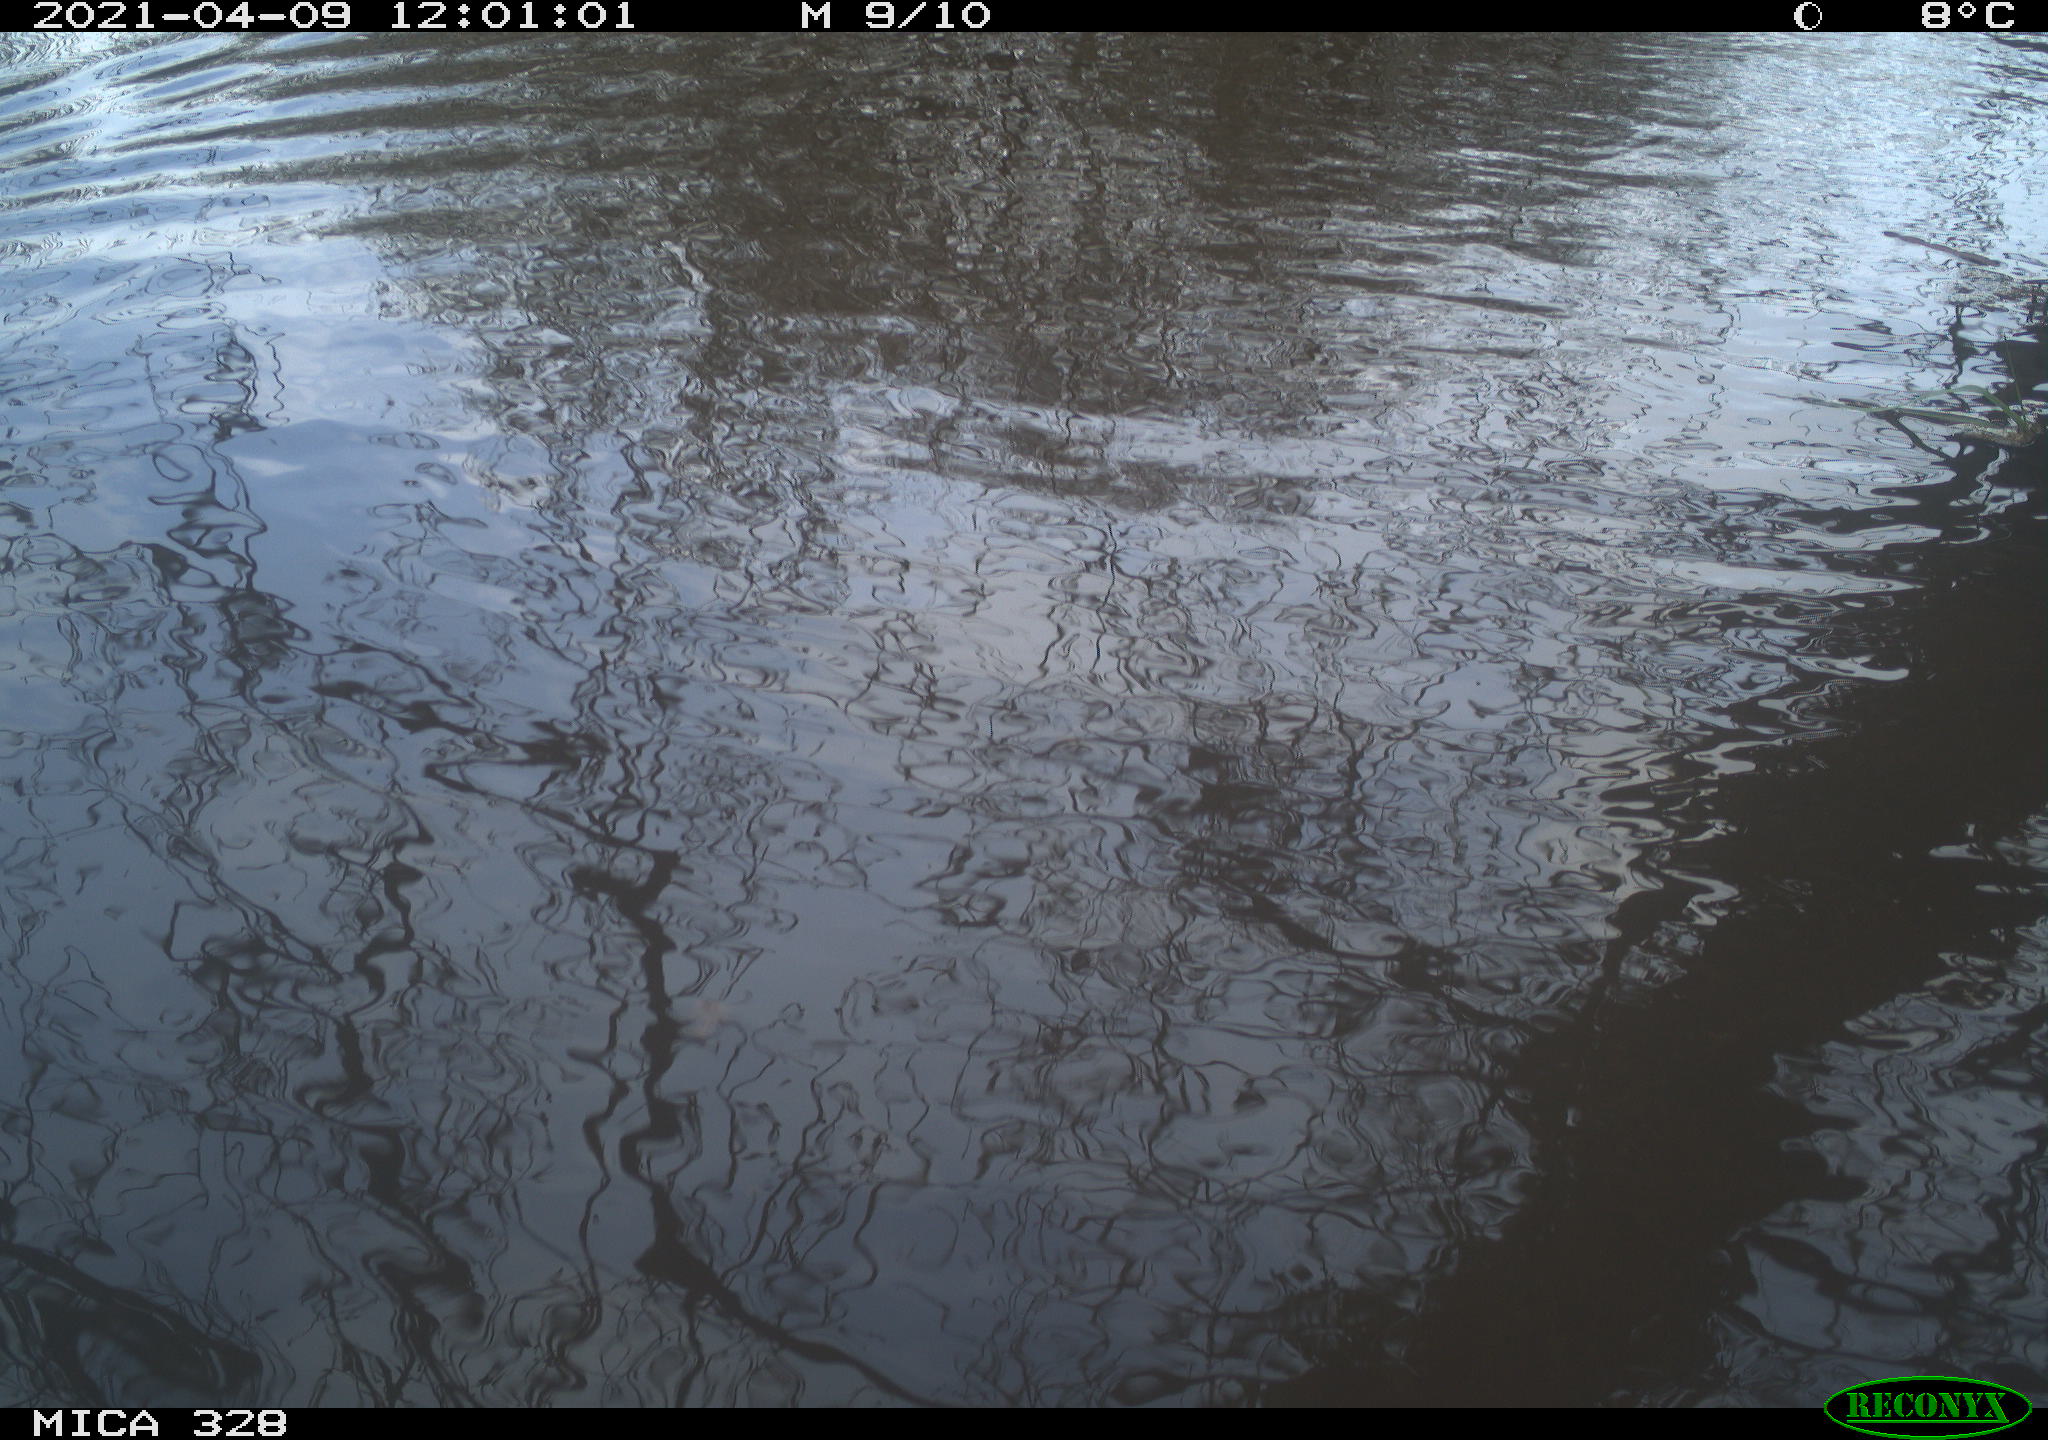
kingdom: Animalia
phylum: Chordata
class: Mammalia
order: Rodentia
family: Cricetidae
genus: Ondatra
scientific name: Ondatra zibethicus
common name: Muskrat
